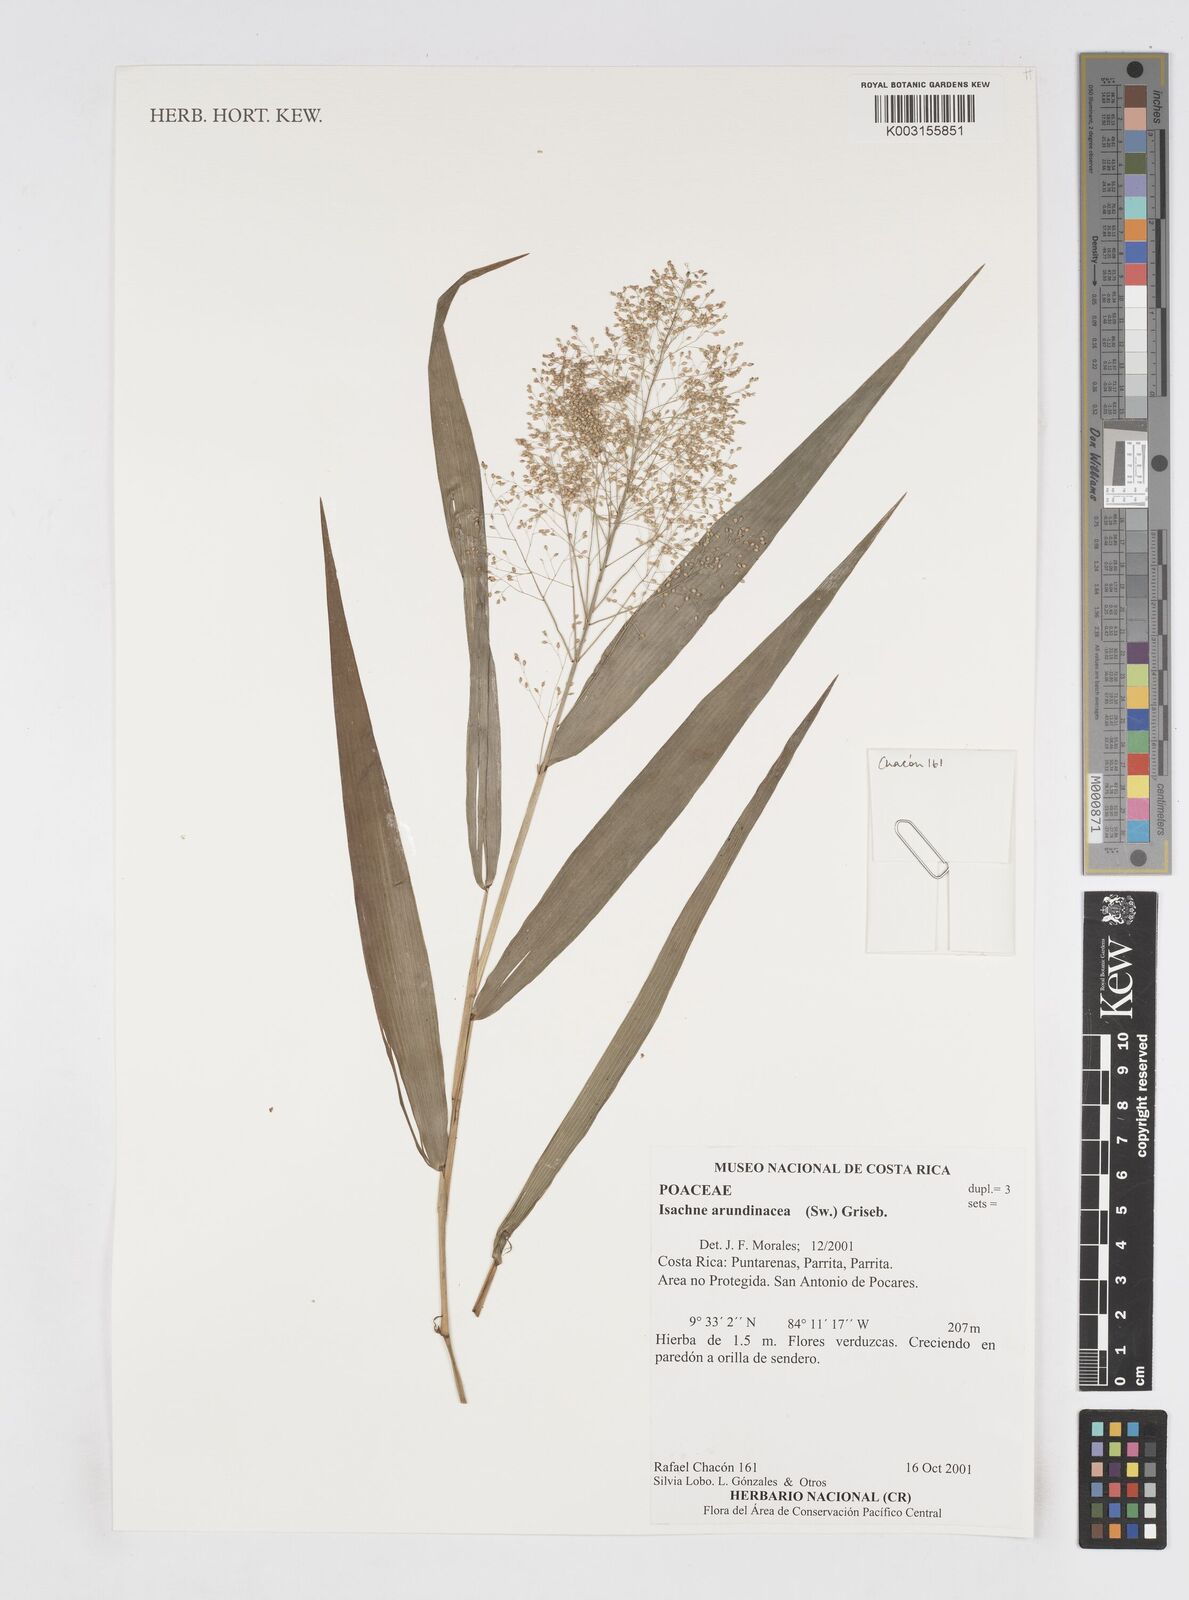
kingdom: Plantae
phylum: Tracheophyta
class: Liliopsida
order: Poales
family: Poaceae
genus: Isachne
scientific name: Isachne arundinacea
